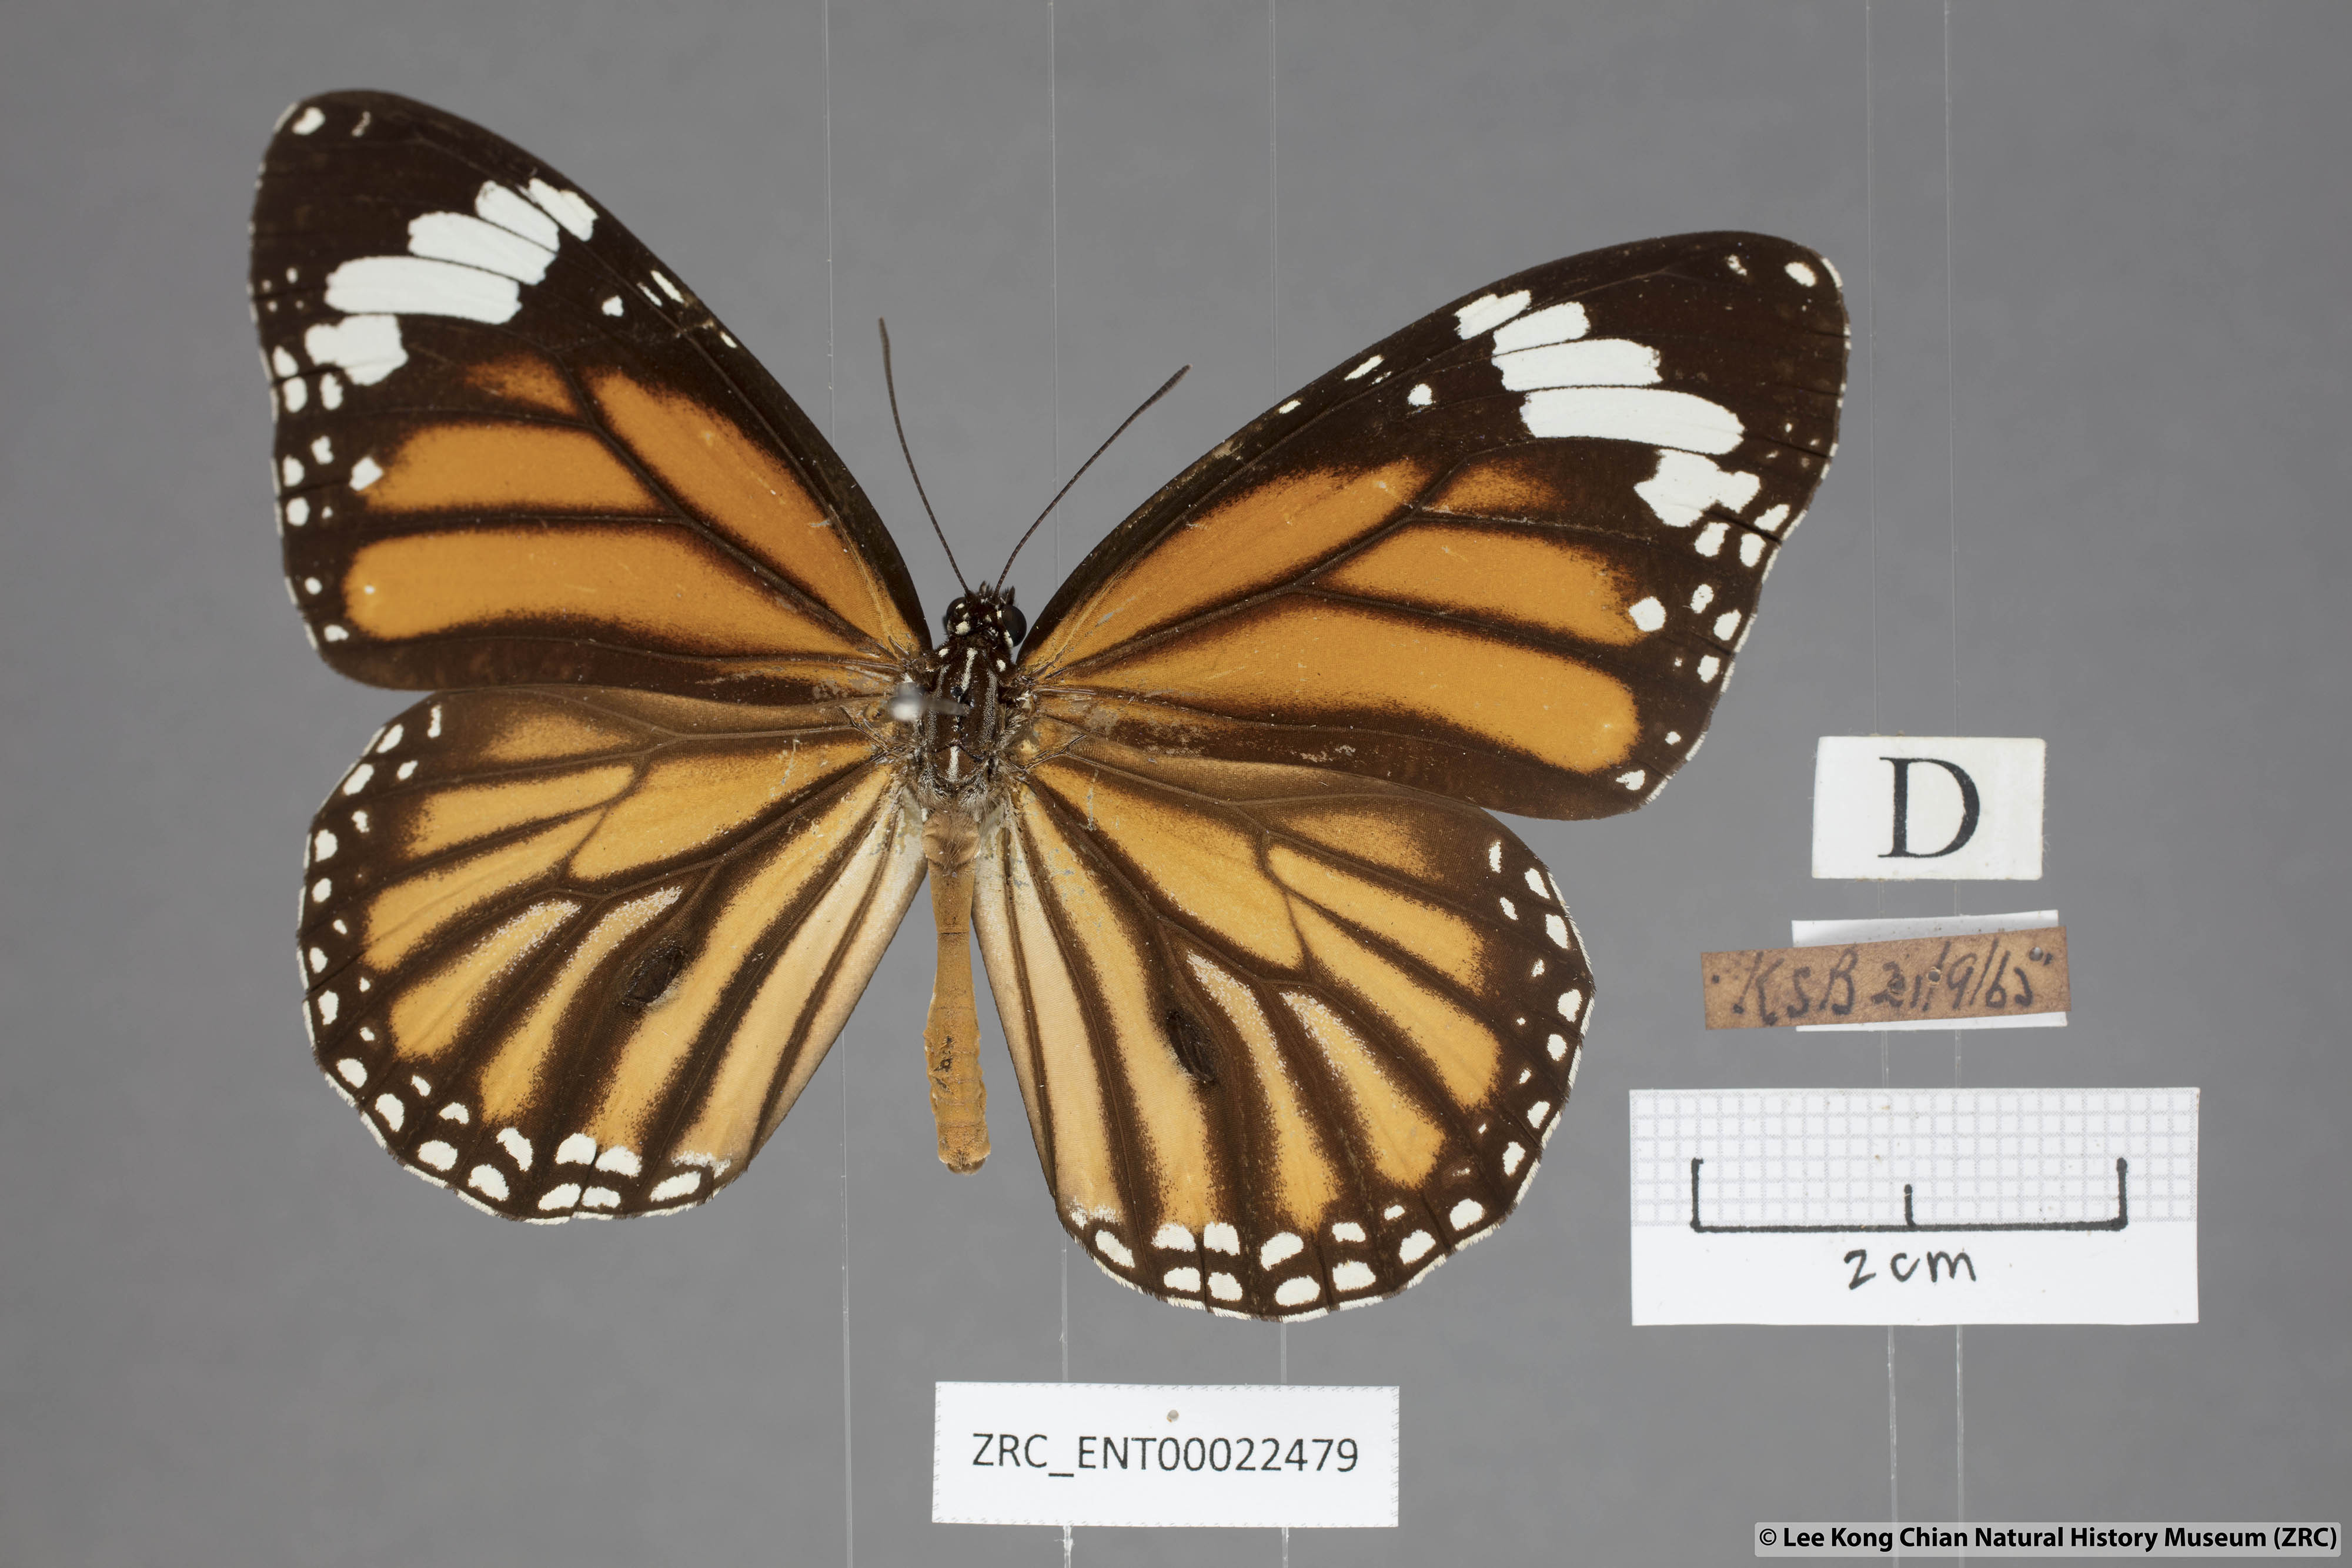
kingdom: Animalia
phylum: Arthropoda
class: Insecta
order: Lepidoptera
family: Nymphalidae
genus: Danaus
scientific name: Danaus genutia
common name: Common tiger butterfly
